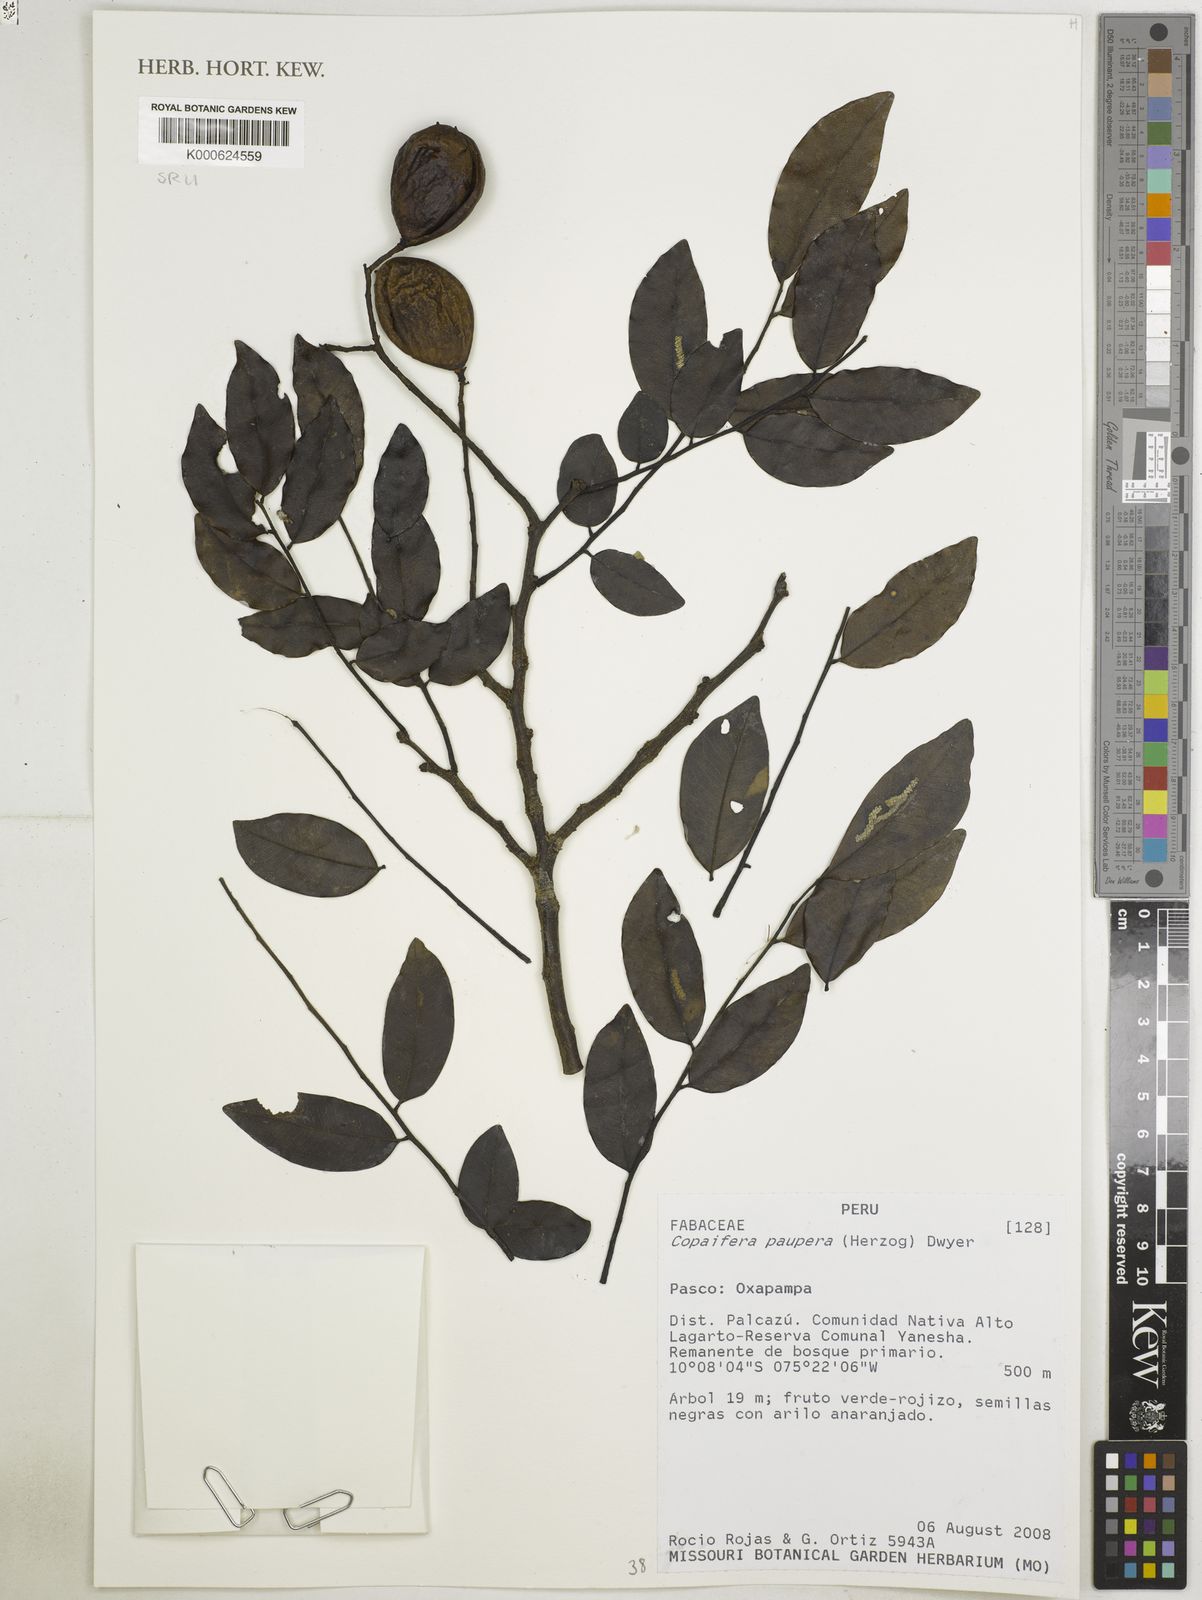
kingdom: Plantae
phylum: Tracheophyta
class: Magnoliopsida
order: Fabales
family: Fabaceae
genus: Copaifera
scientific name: Copaifera paupera
